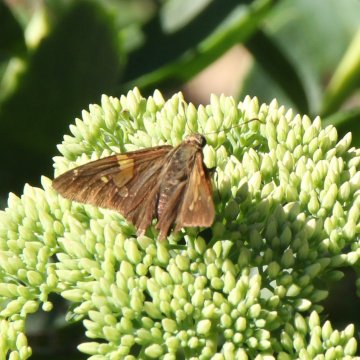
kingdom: Animalia
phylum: Arthropoda
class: Insecta
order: Lepidoptera
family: Hesperiidae
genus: Epargyreus
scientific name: Epargyreus clarus
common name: Silver-spotted Skipper
